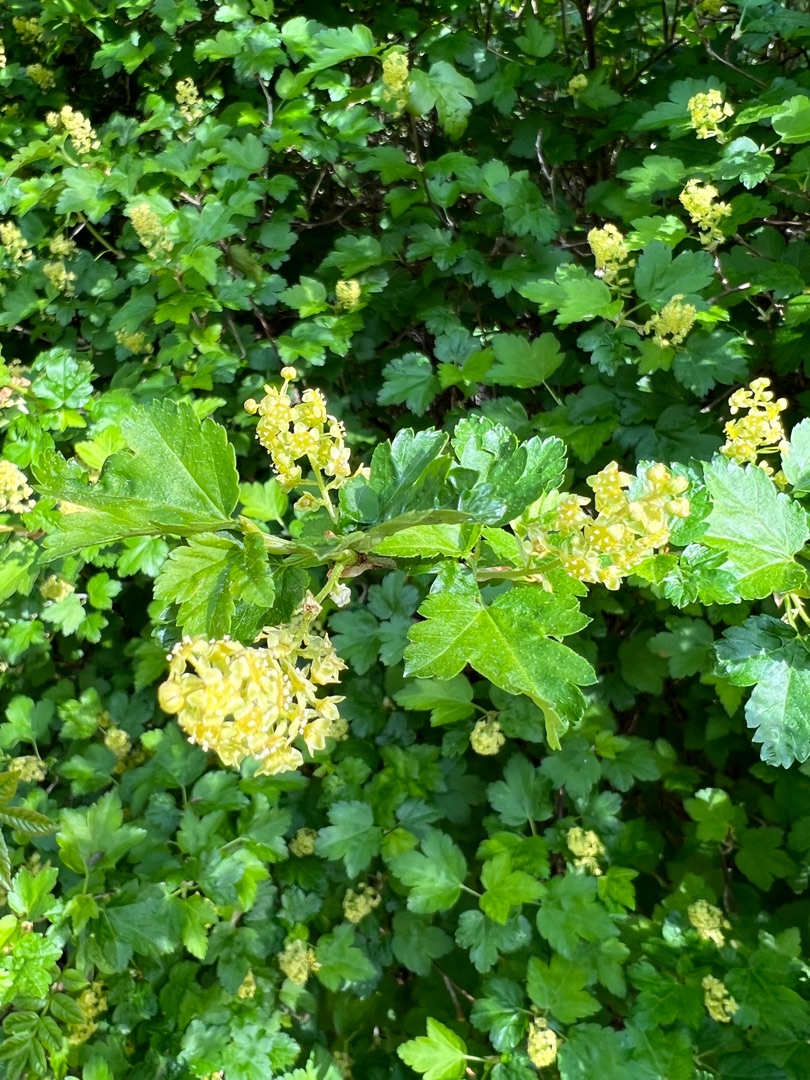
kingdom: Plantae
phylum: Tracheophyta
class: Magnoliopsida
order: Saxifragales
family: Grossulariaceae
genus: Ribes
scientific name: Ribes alpinum
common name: Fjeld-ribs
